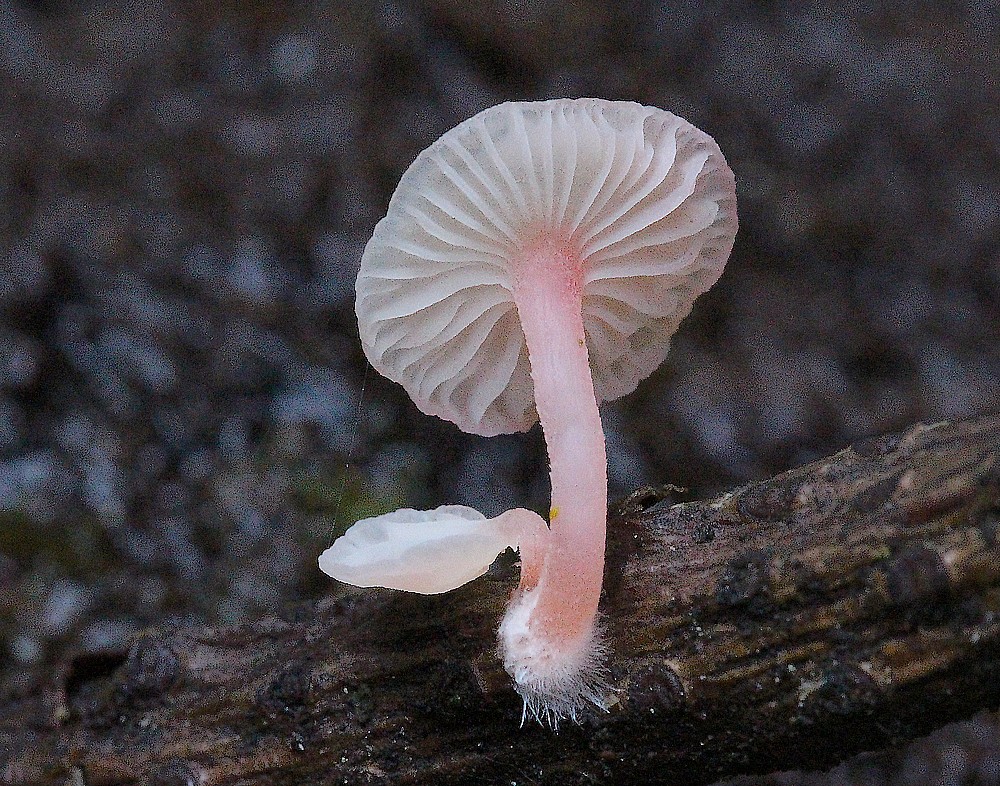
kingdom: Fungi
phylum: Basidiomycota
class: Agaricomycetes
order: Agaricales
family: Mycenaceae
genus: Mycena
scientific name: Mycena coccinea
